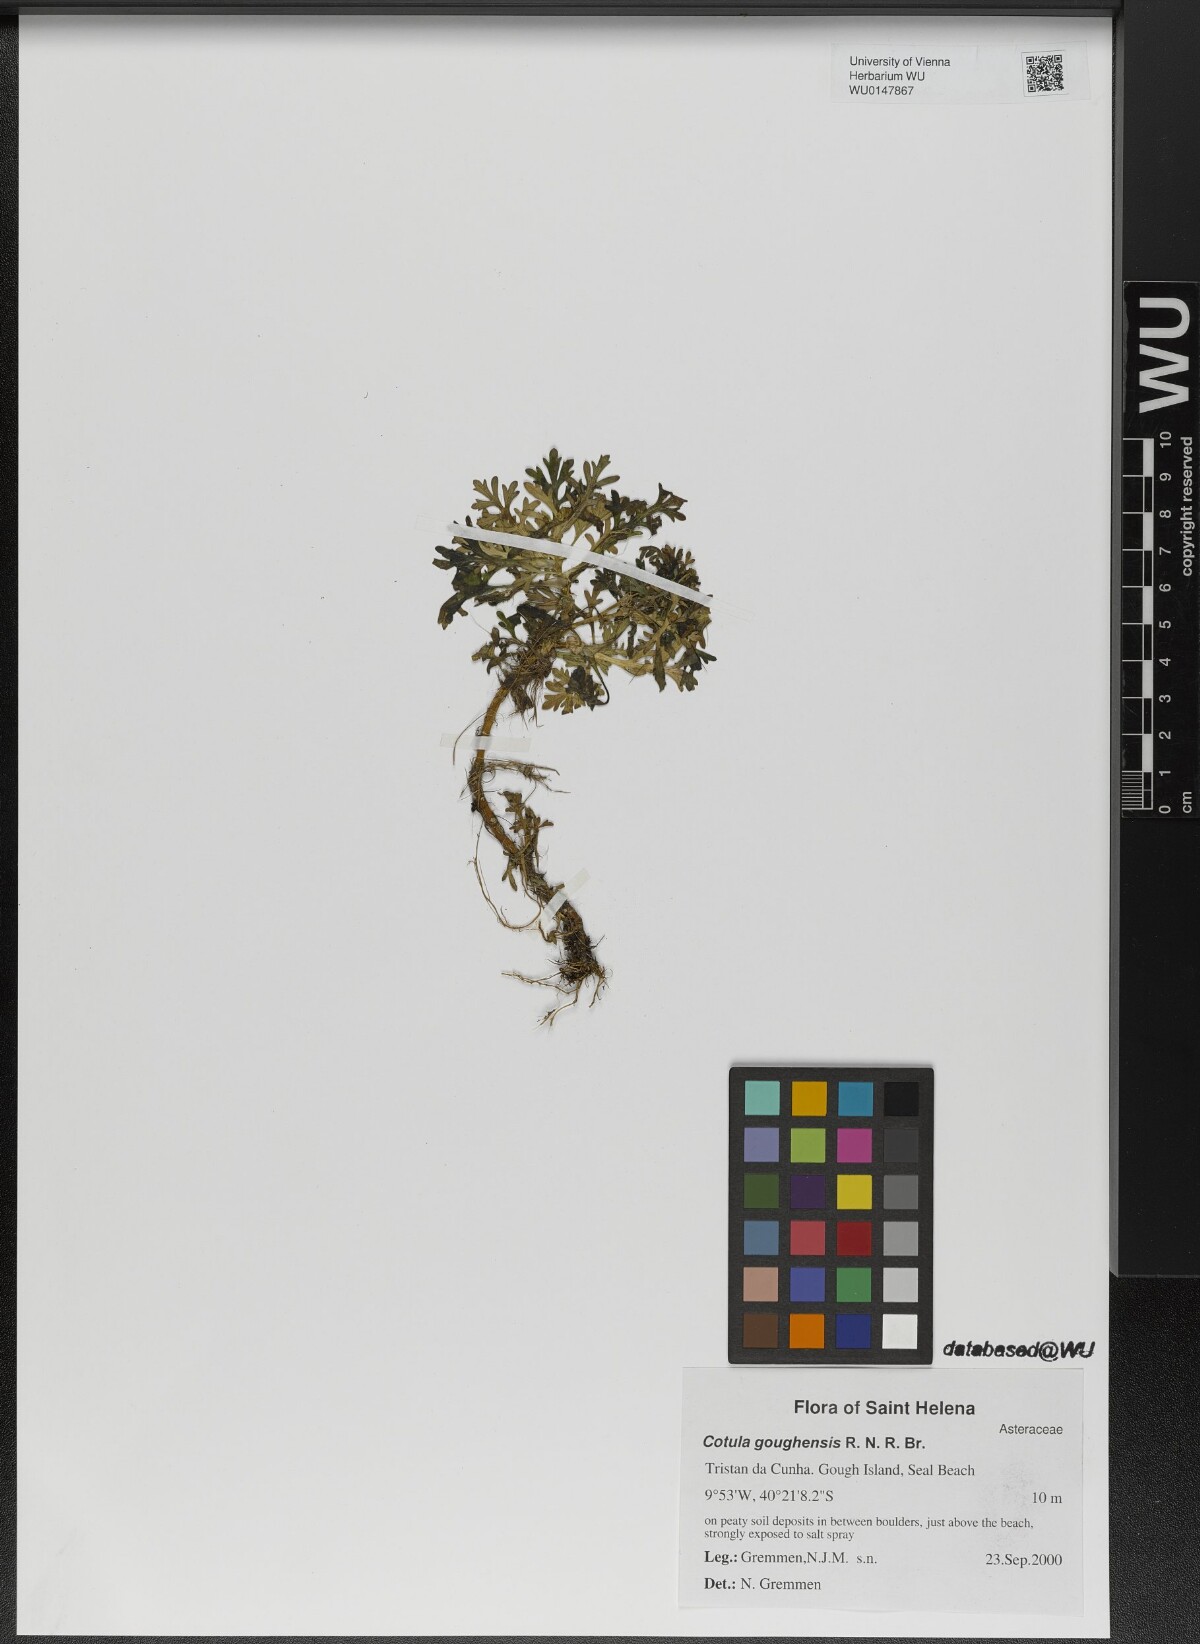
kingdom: Plantae
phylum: Tracheophyta
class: Magnoliopsida
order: Asterales
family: Asteraceae
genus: Cotula
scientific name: Cotula goughensis
